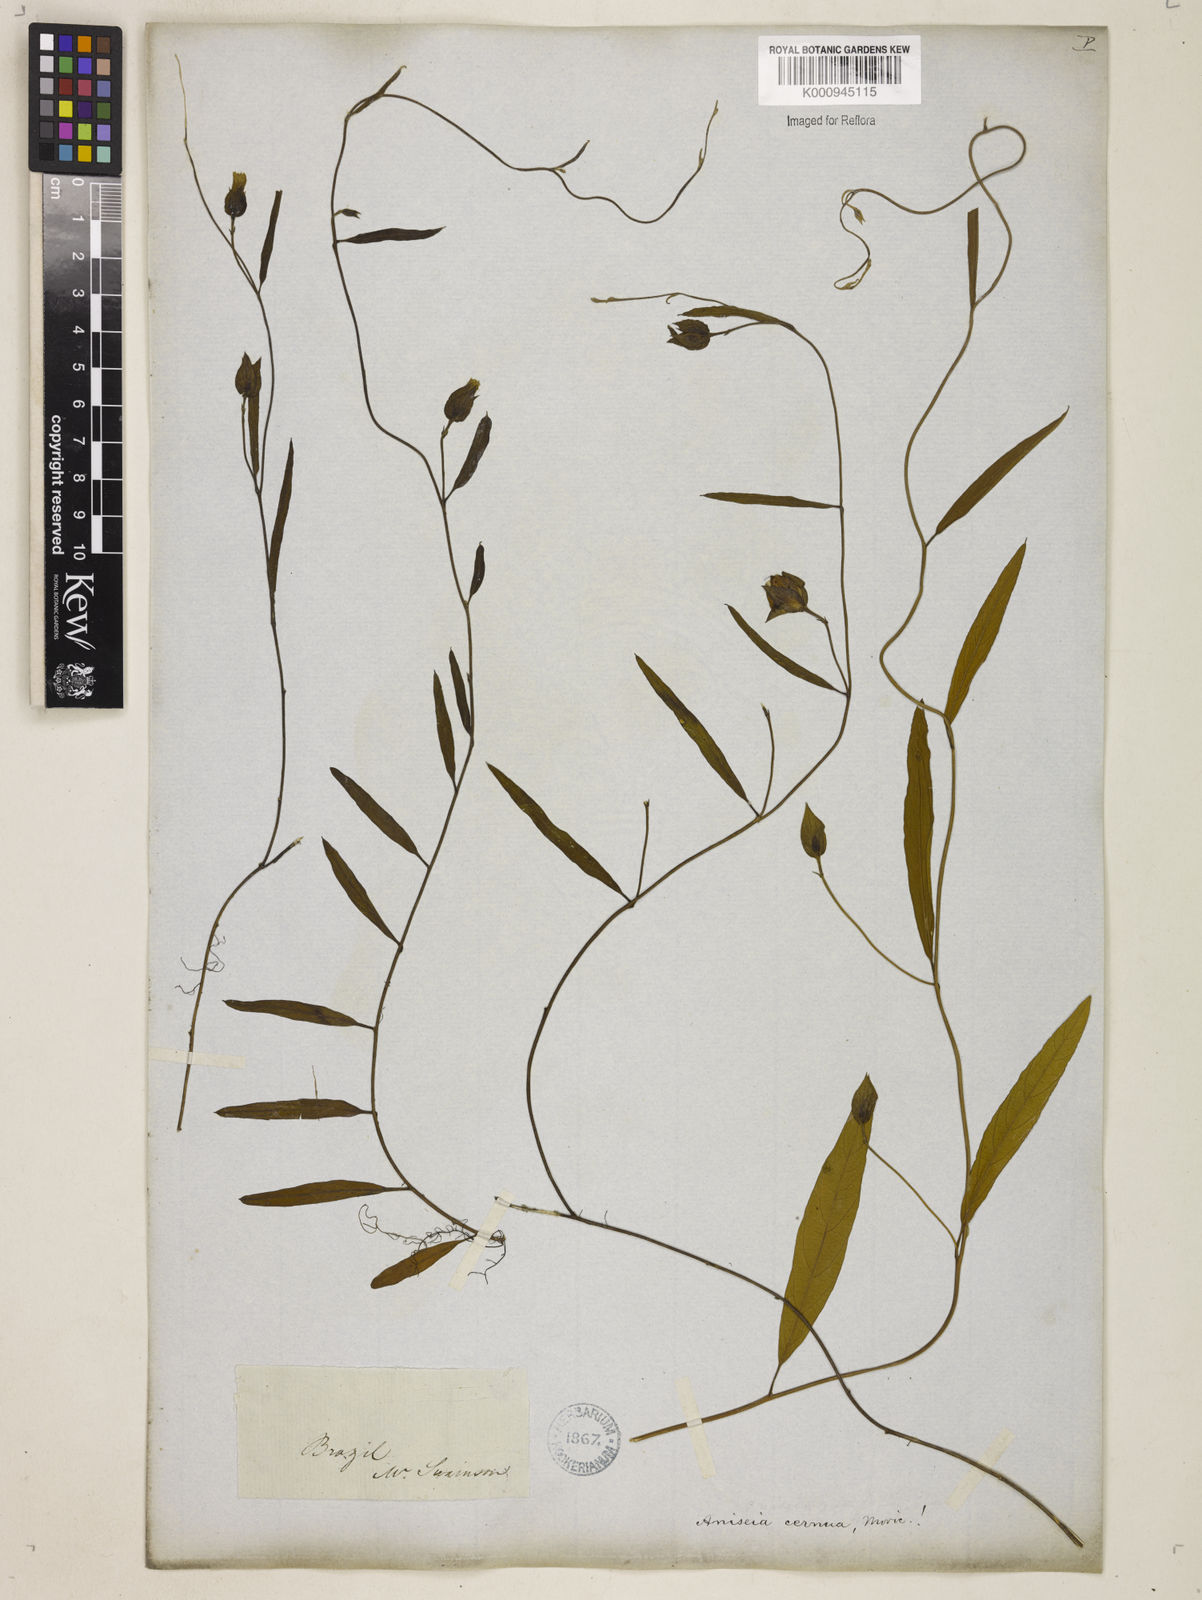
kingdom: Plantae
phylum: Tracheophyta
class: Magnoliopsida
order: Solanales
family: Convolvulaceae
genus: Aniseia
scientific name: Aniseia
